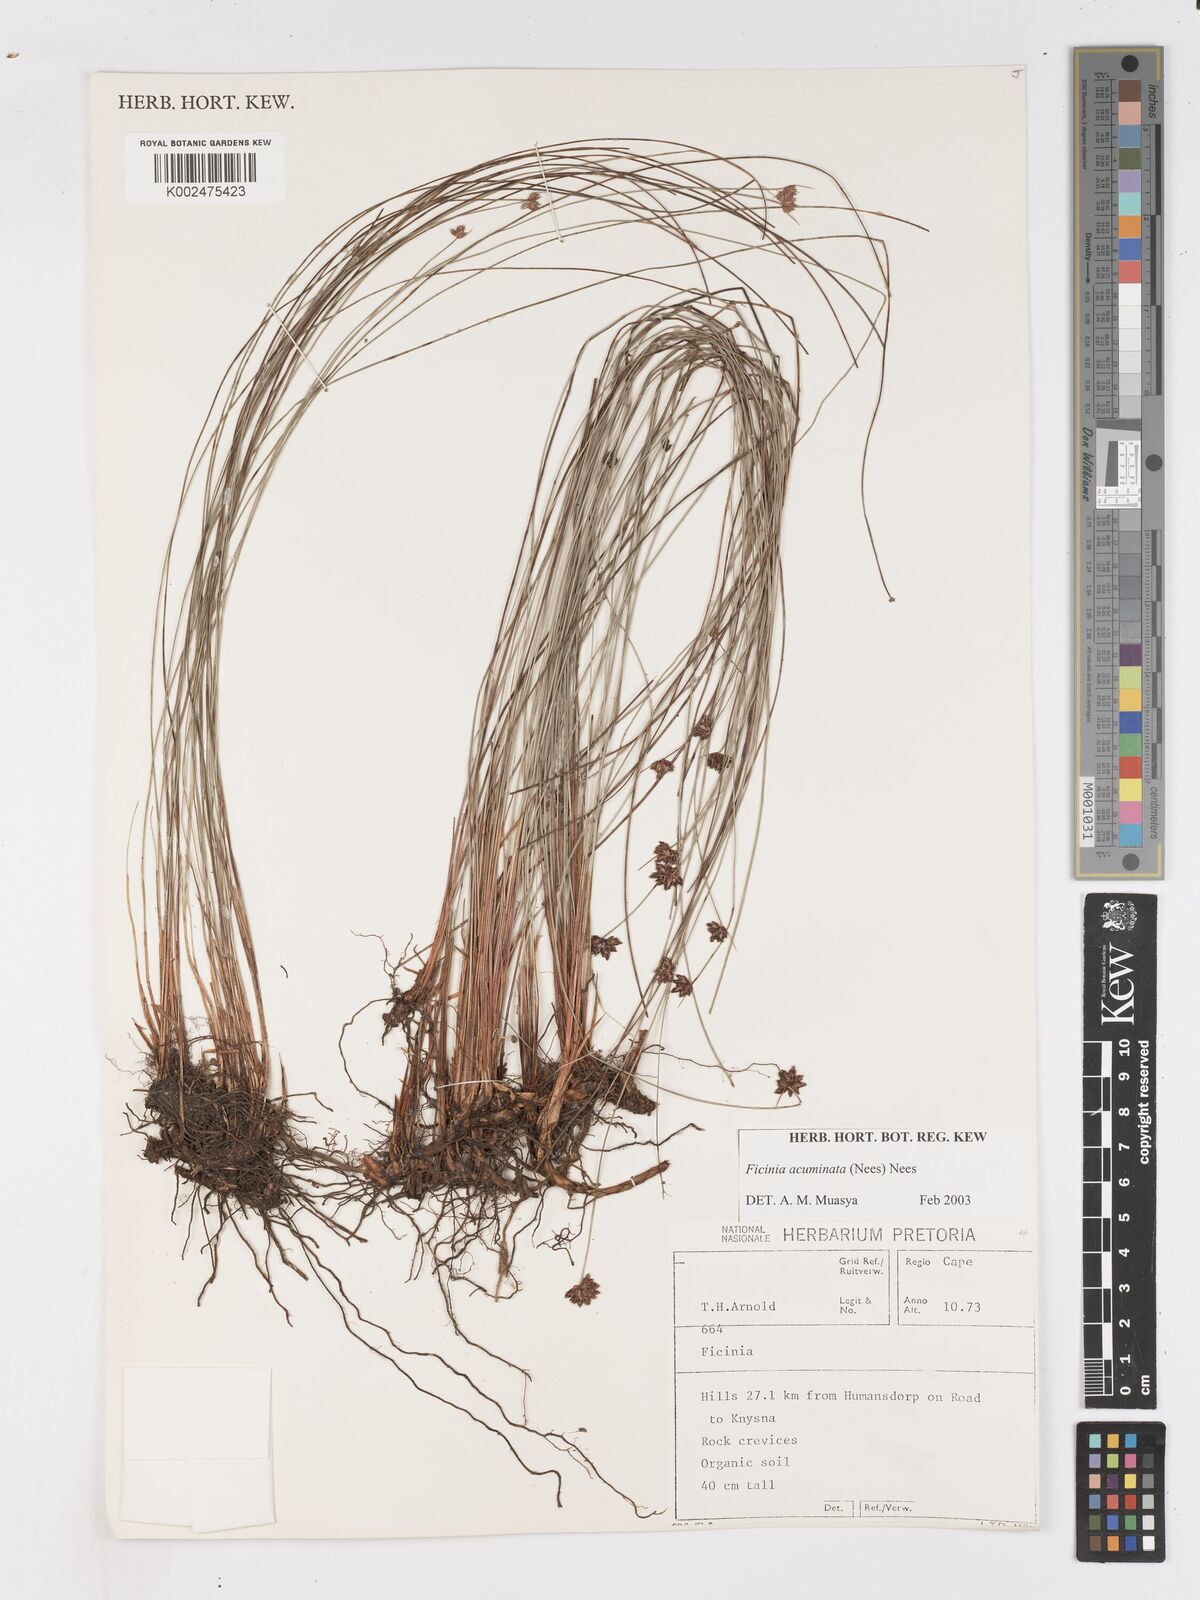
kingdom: Plantae
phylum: Tracheophyta
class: Liliopsida
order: Poales
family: Cyperaceae
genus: Ficinia
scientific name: Ficinia acuminata
